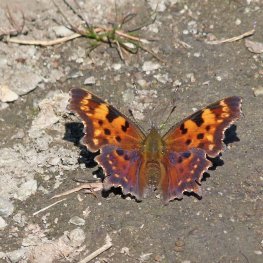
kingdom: Animalia
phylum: Arthropoda
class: Insecta
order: Lepidoptera
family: Nymphalidae
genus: Polygonia
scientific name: Polygonia faunus
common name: Green Comma
